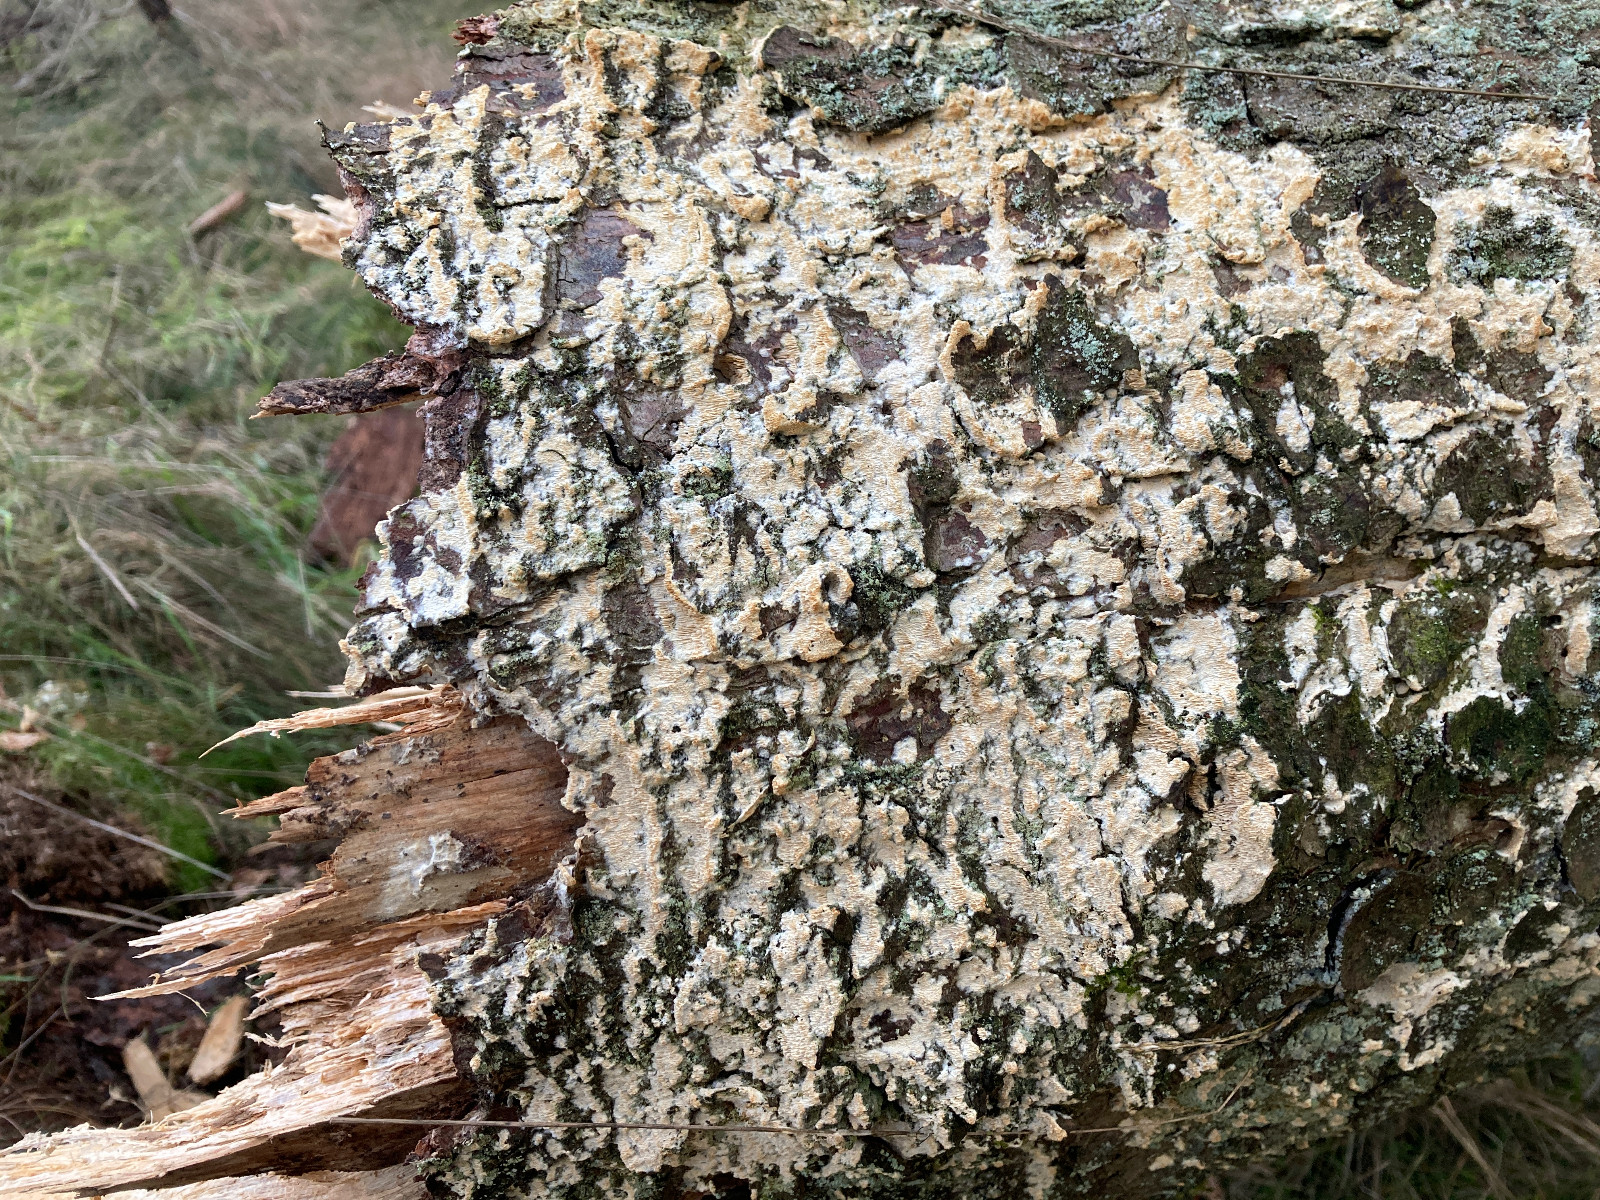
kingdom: Fungi
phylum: Basidiomycota
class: Agaricomycetes
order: Hymenochaetales
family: Schizoporaceae
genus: Xylodon
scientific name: Xylodon
